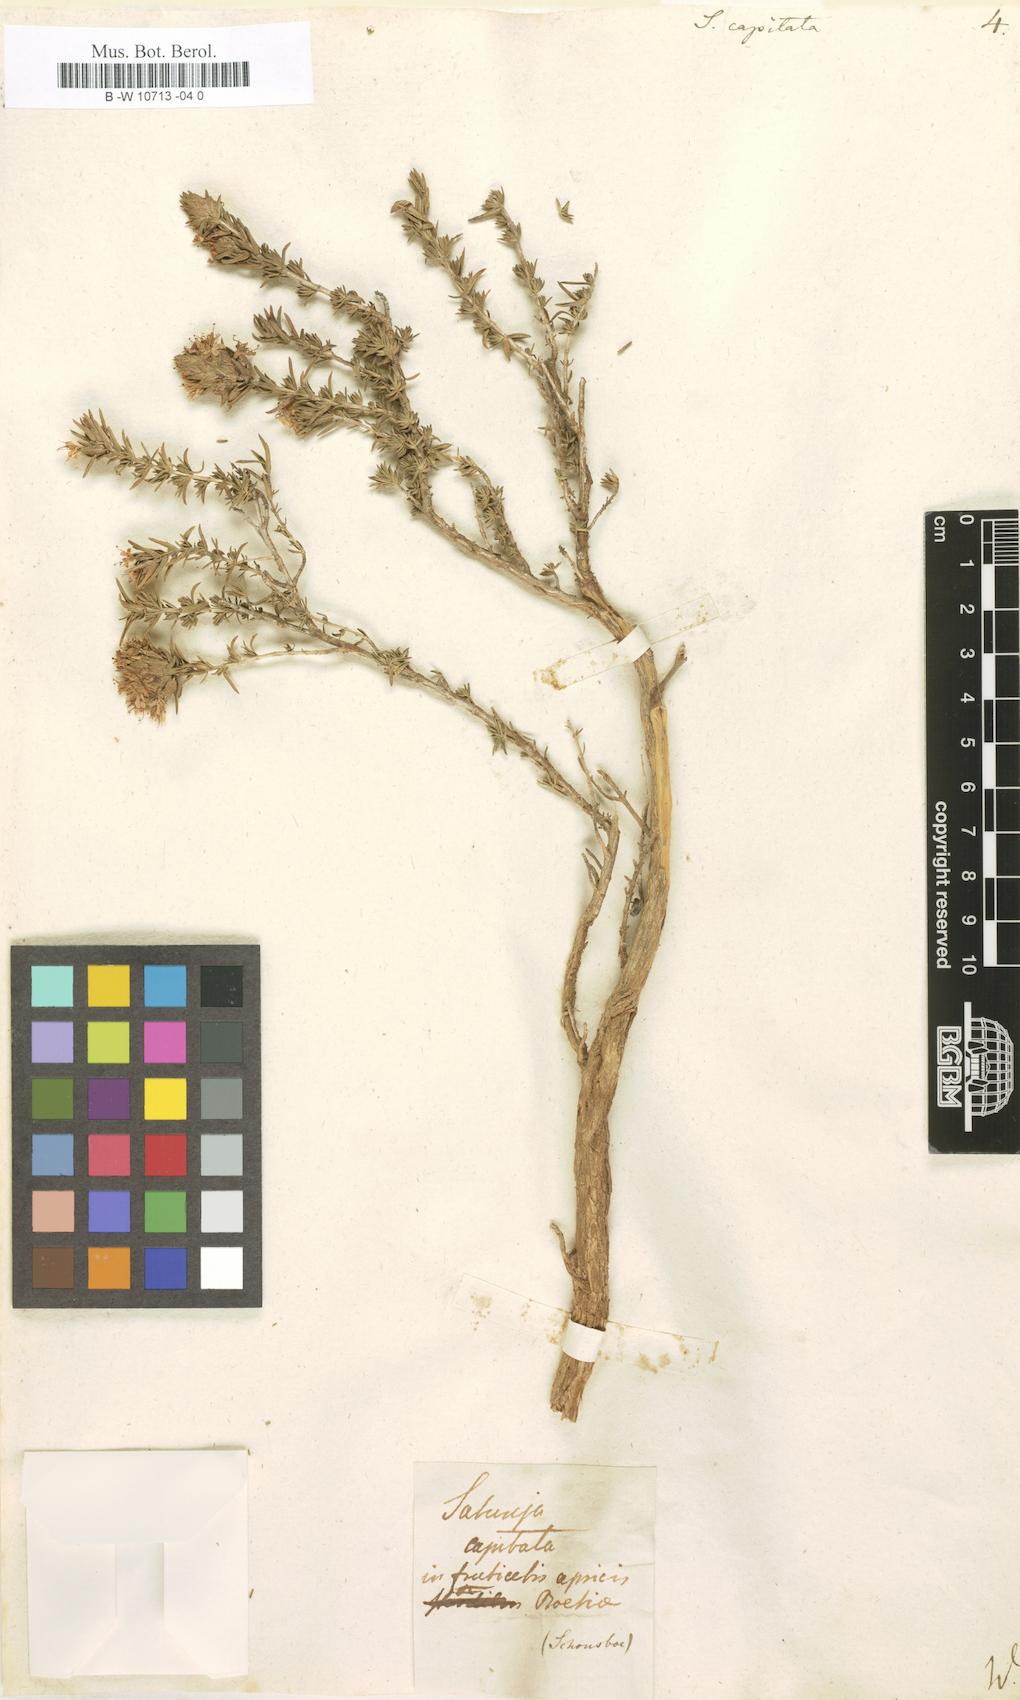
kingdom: Plantae
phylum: Tracheophyta
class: Magnoliopsida
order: Lamiales
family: Lamiaceae
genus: Thymbra
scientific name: Thymbra capitata
